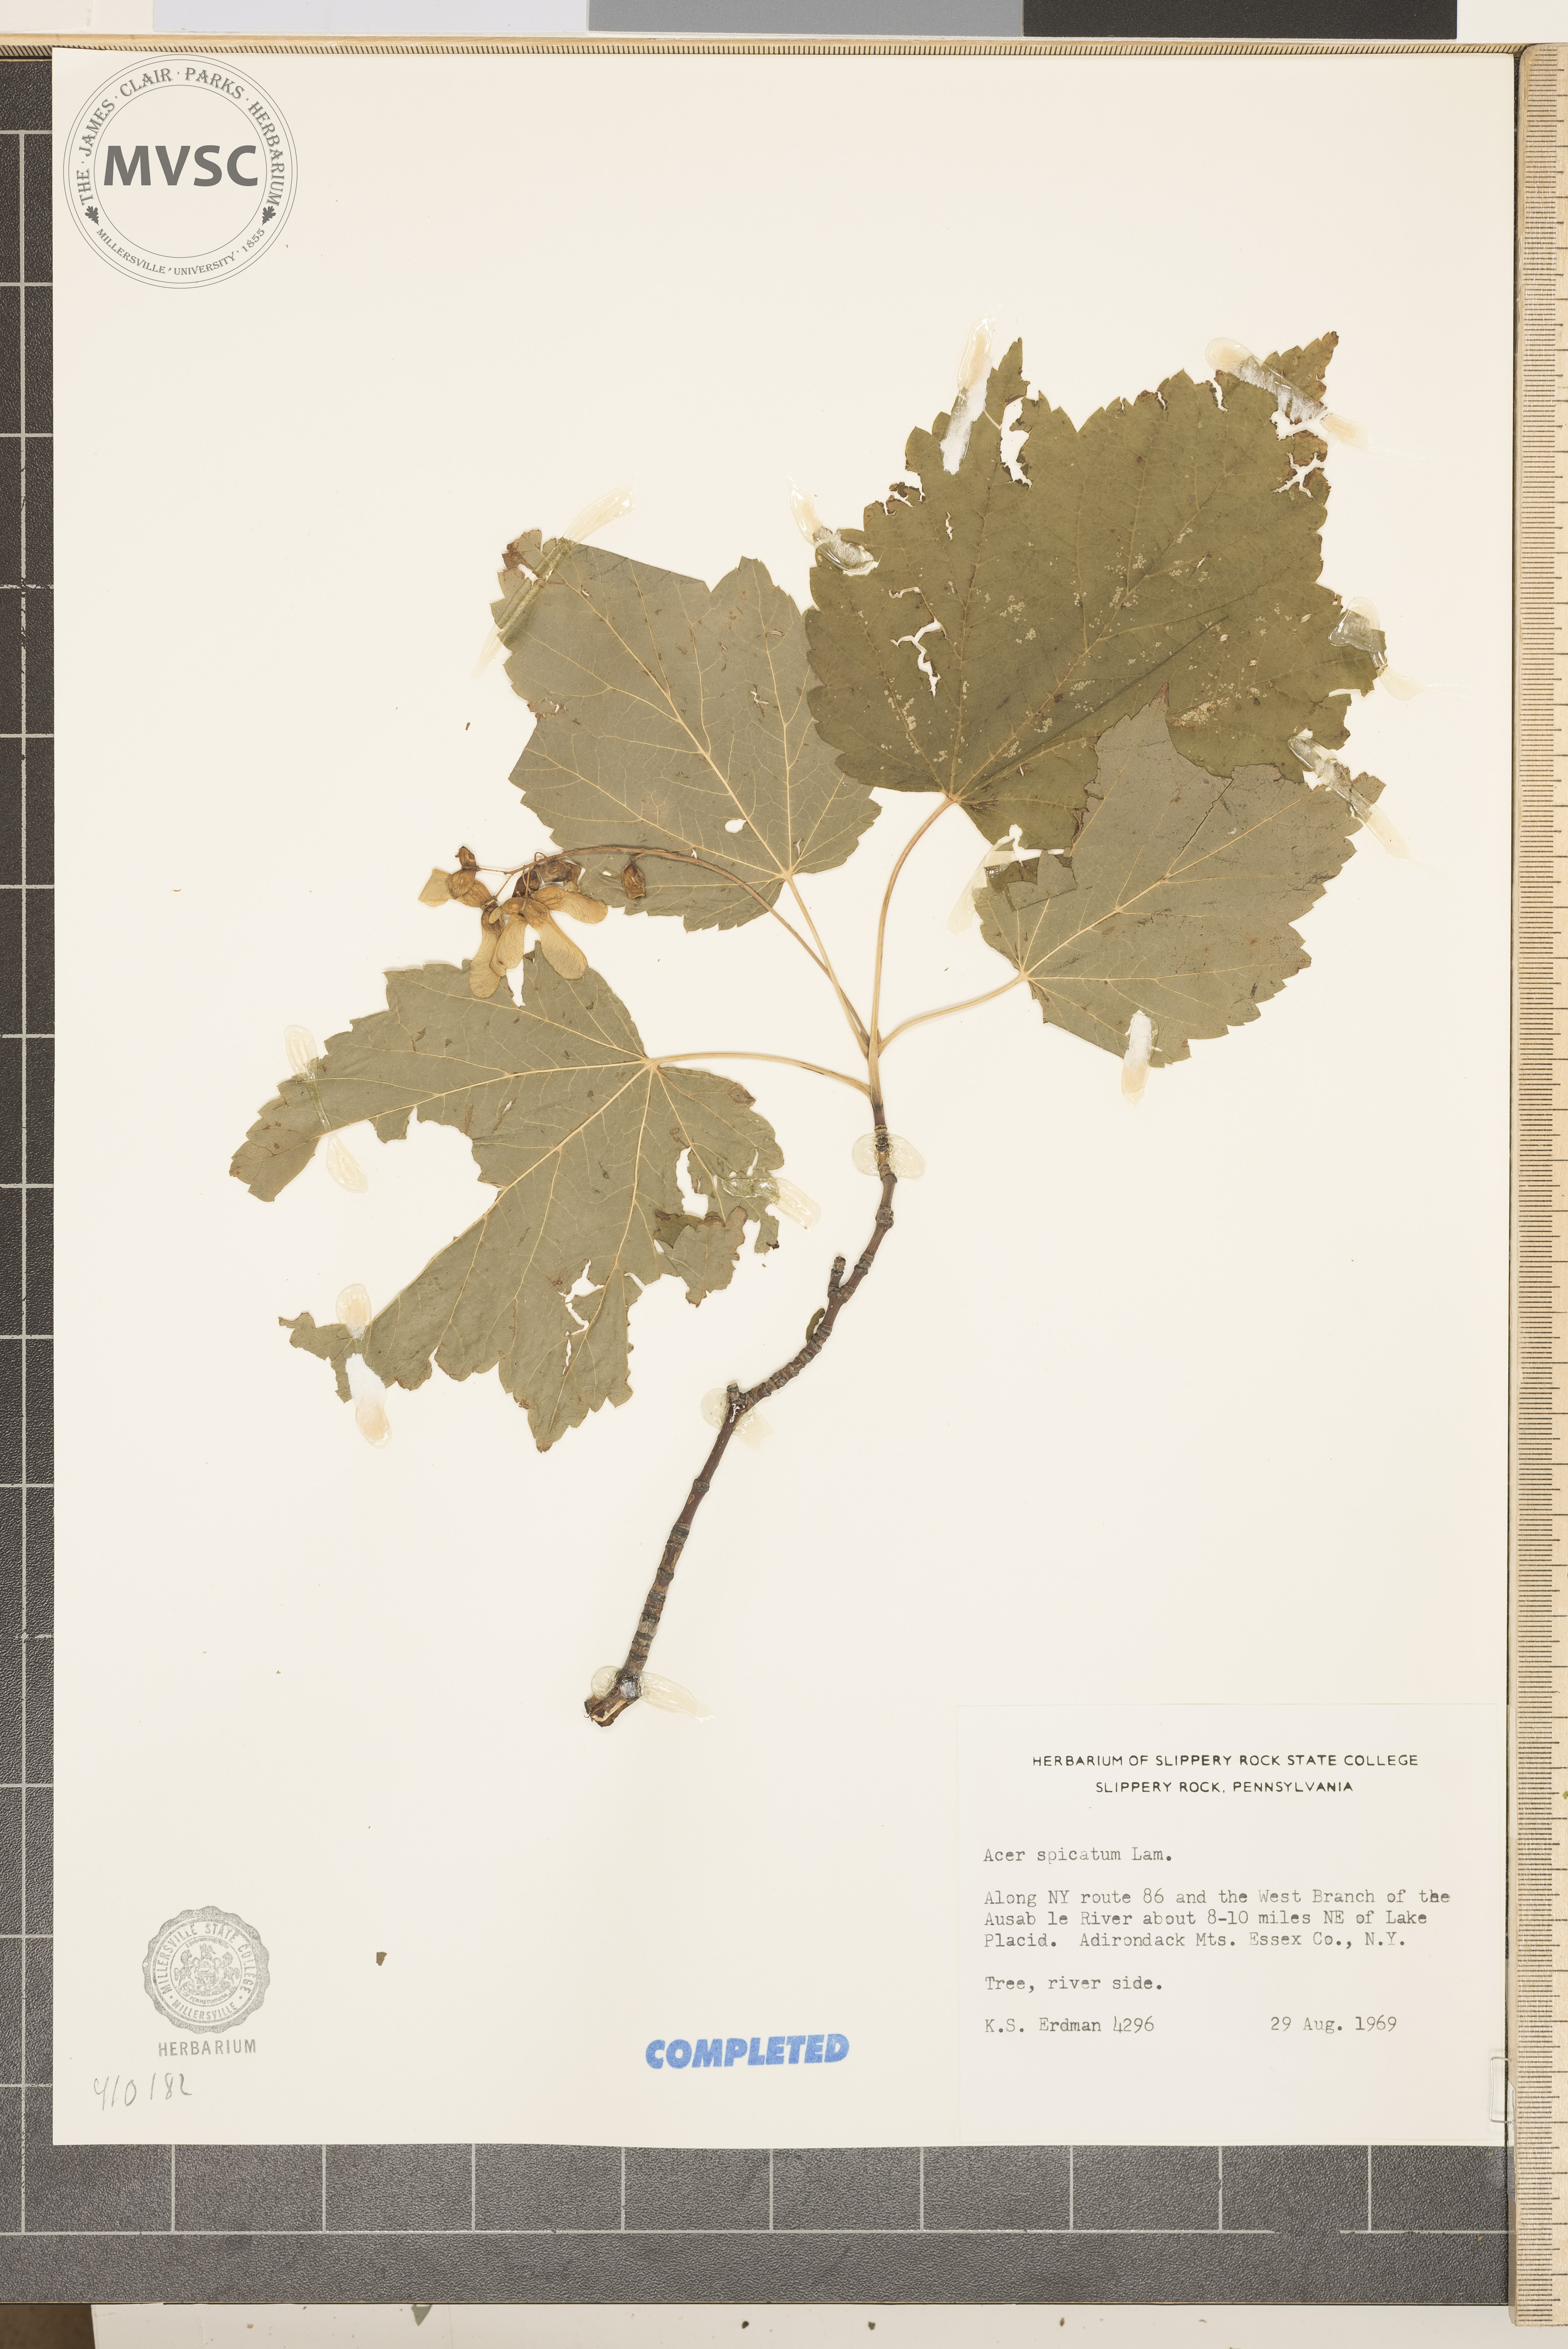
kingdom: Plantae
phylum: Tracheophyta
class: Magnoliopsida
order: Sapindales
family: Sapindaceae
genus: Acer
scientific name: Acer spicatum
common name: Mountain maple
